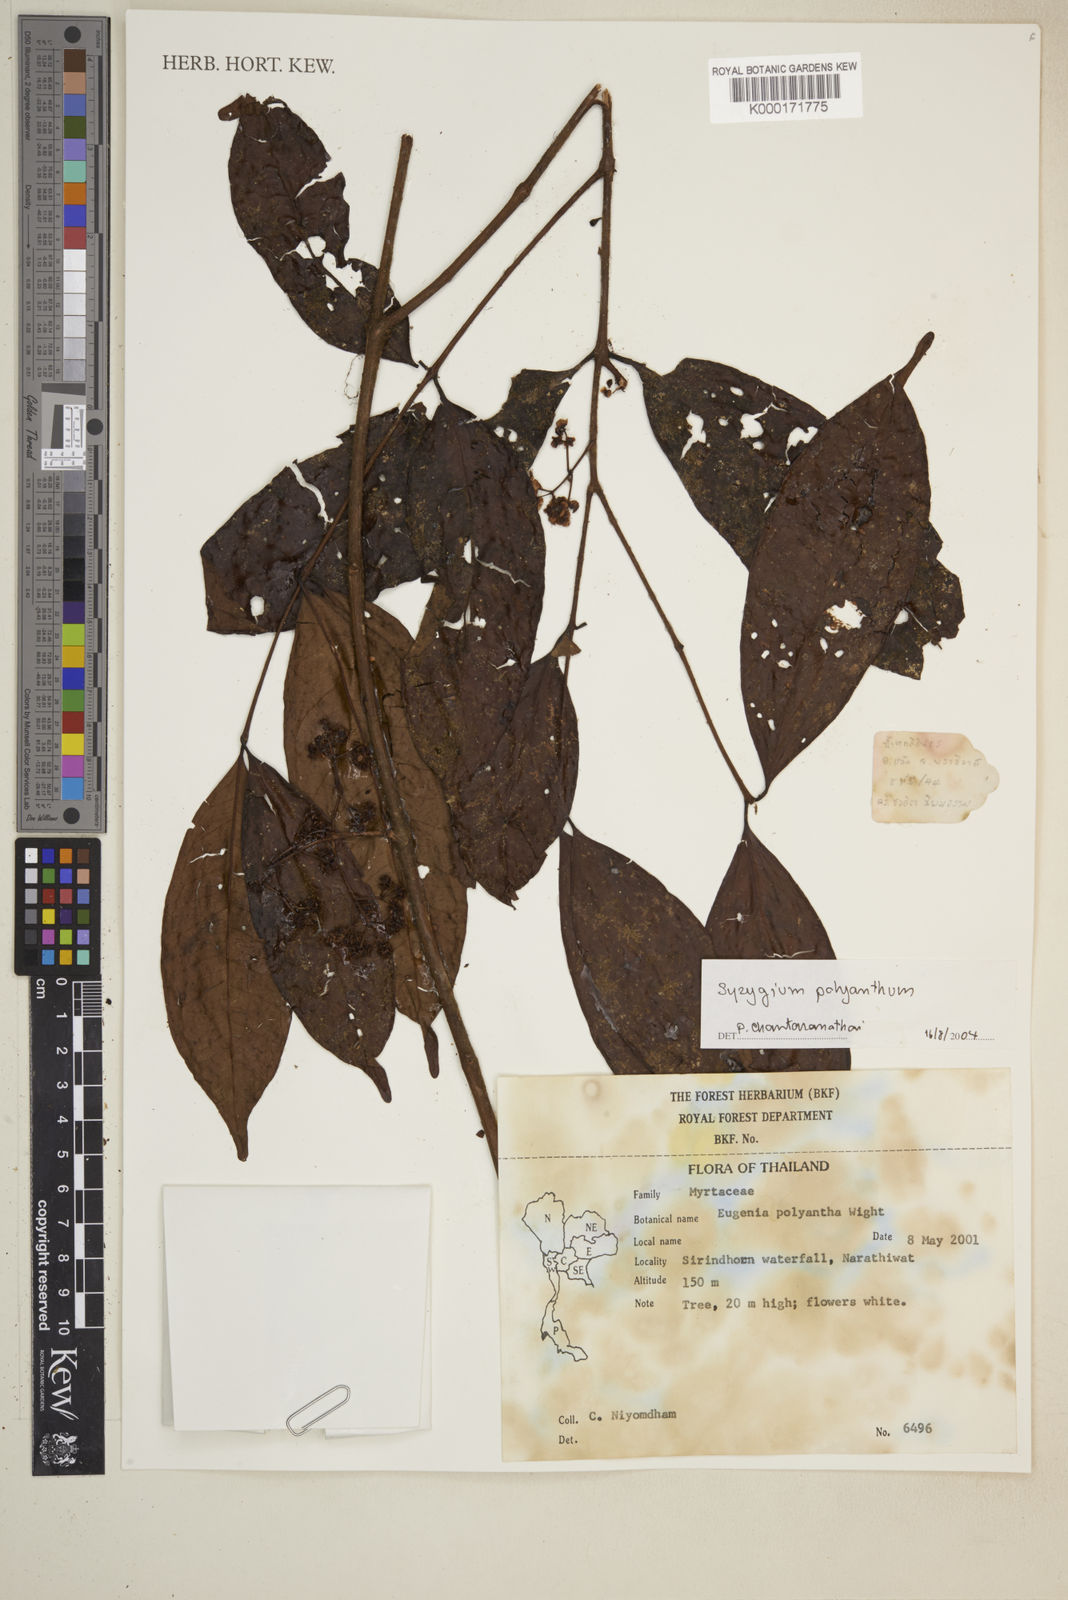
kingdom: Plantae
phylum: Tracheophyta
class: Magnoliopsida
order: Myrtales
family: Myrtaceae
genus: Syzygium
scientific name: Syzygium polyanthum
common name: Indonesian bayleaf
